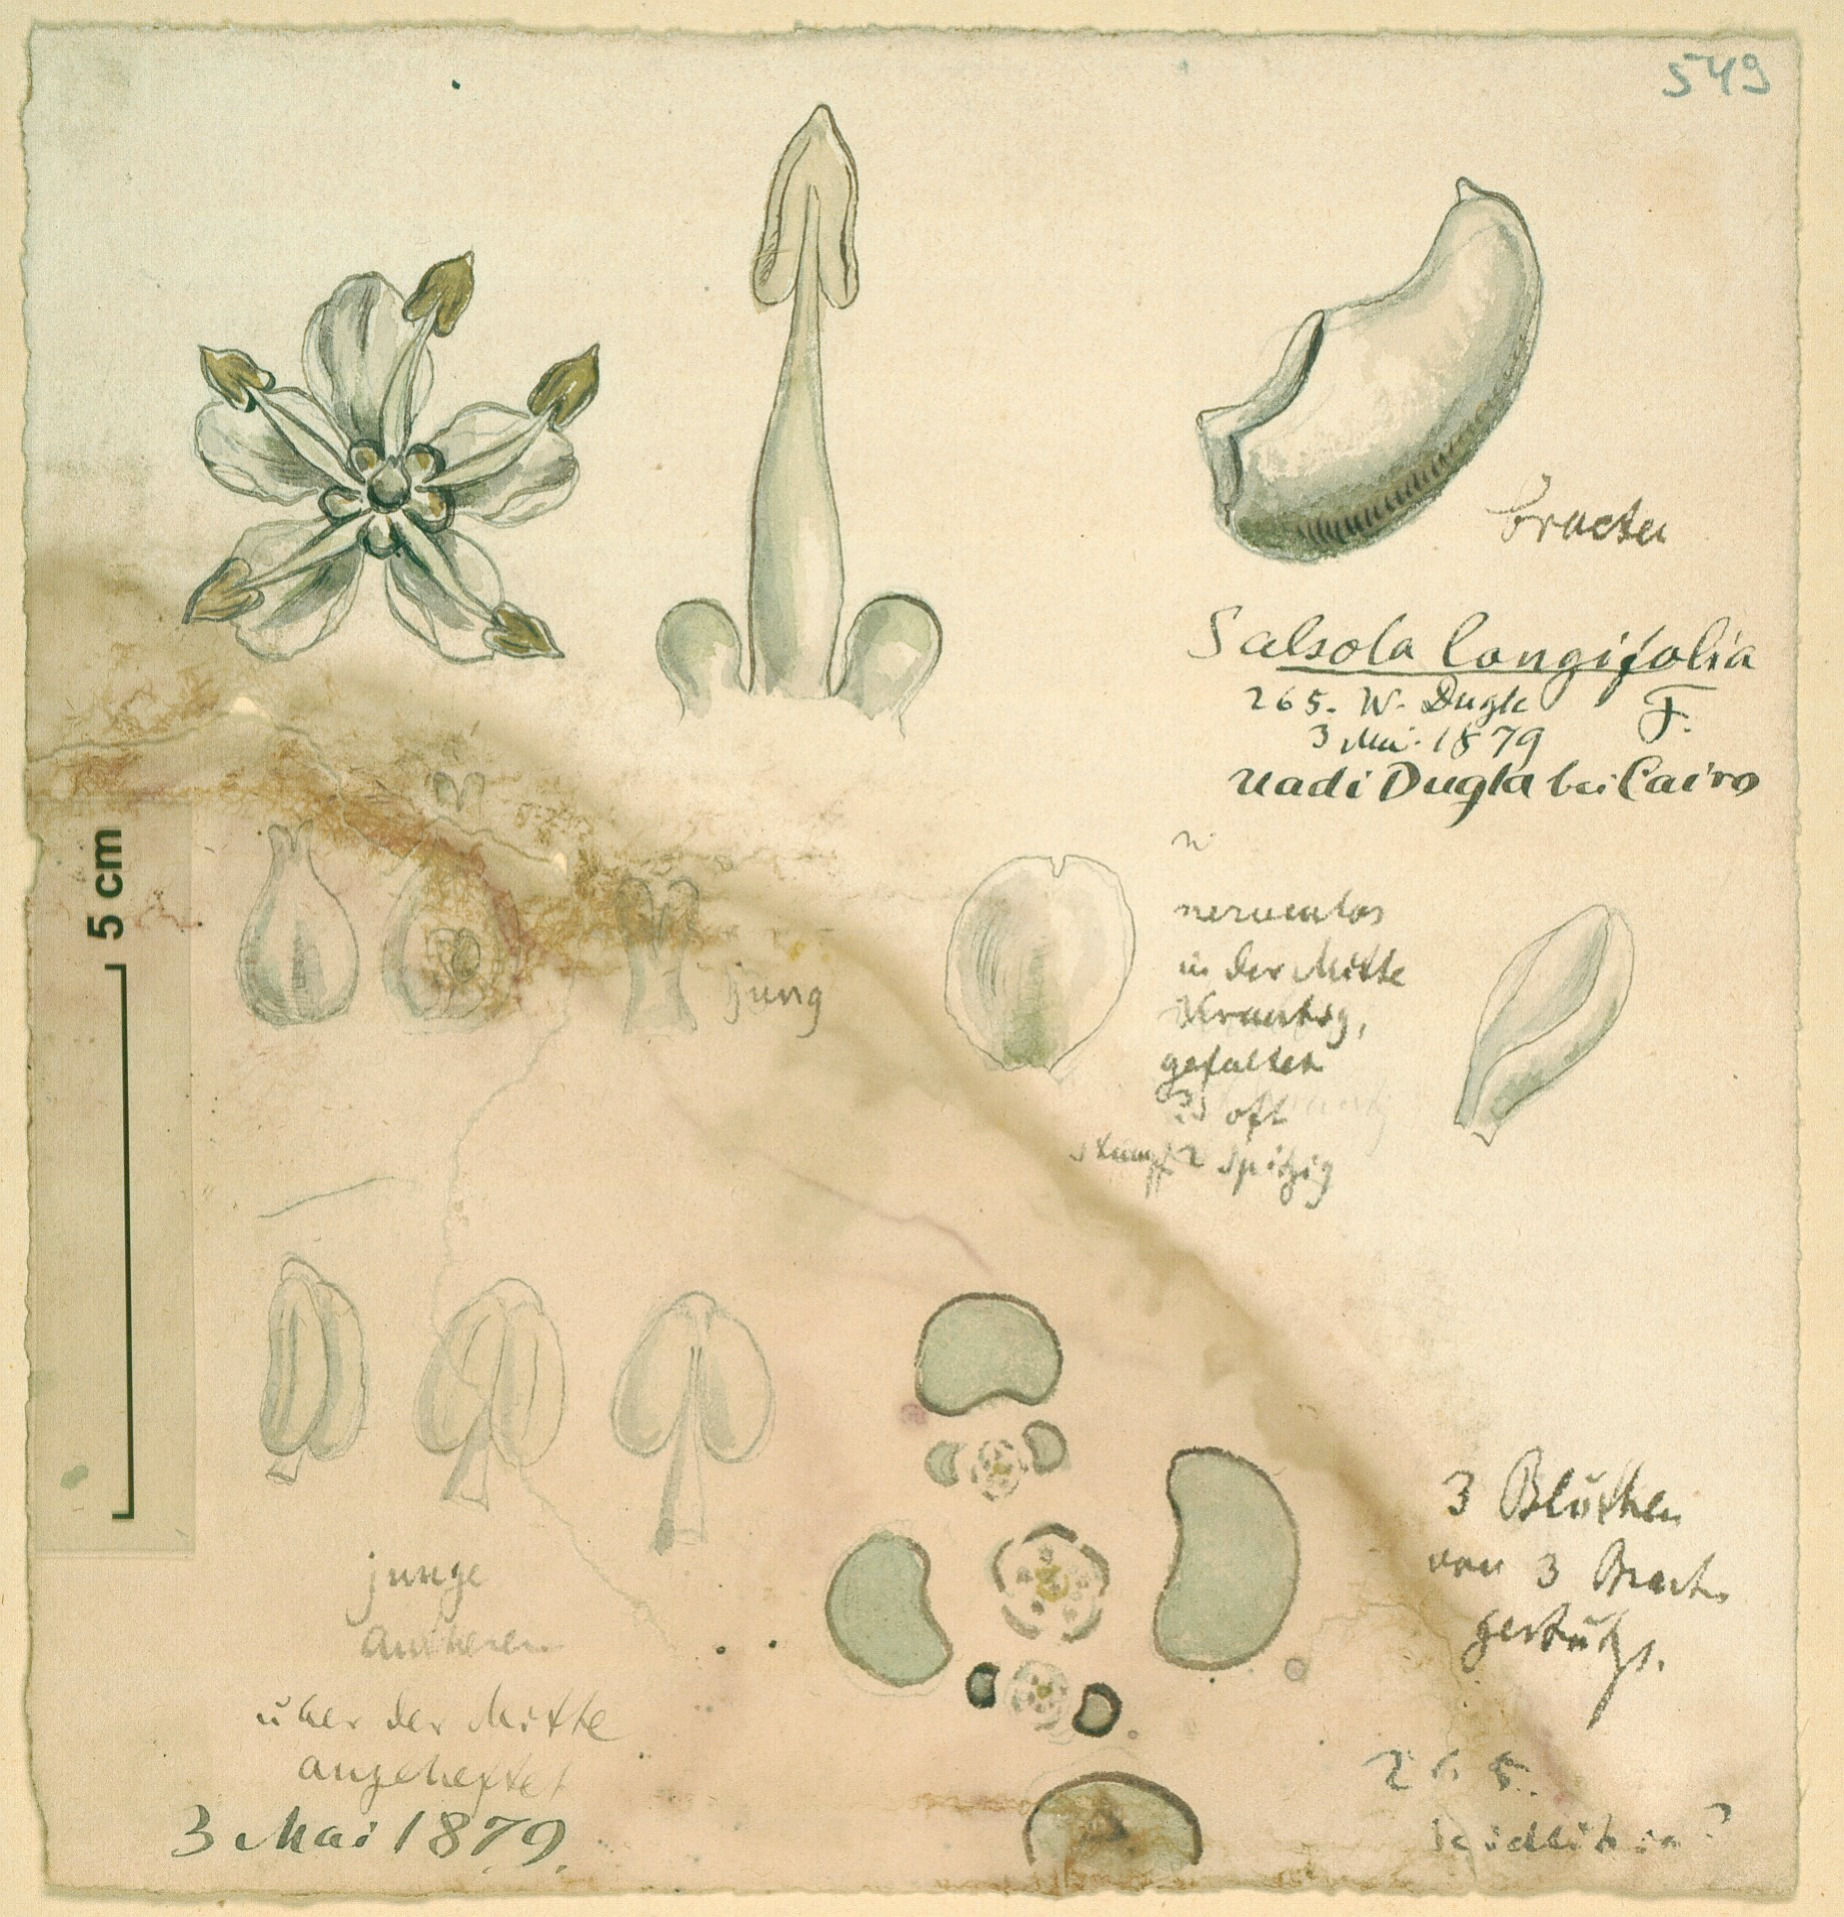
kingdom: Plantae
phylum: Tracheophyta
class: Magnoliopsida
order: Caryophyllales
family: Amaranthaceae
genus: Soda
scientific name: Soda
